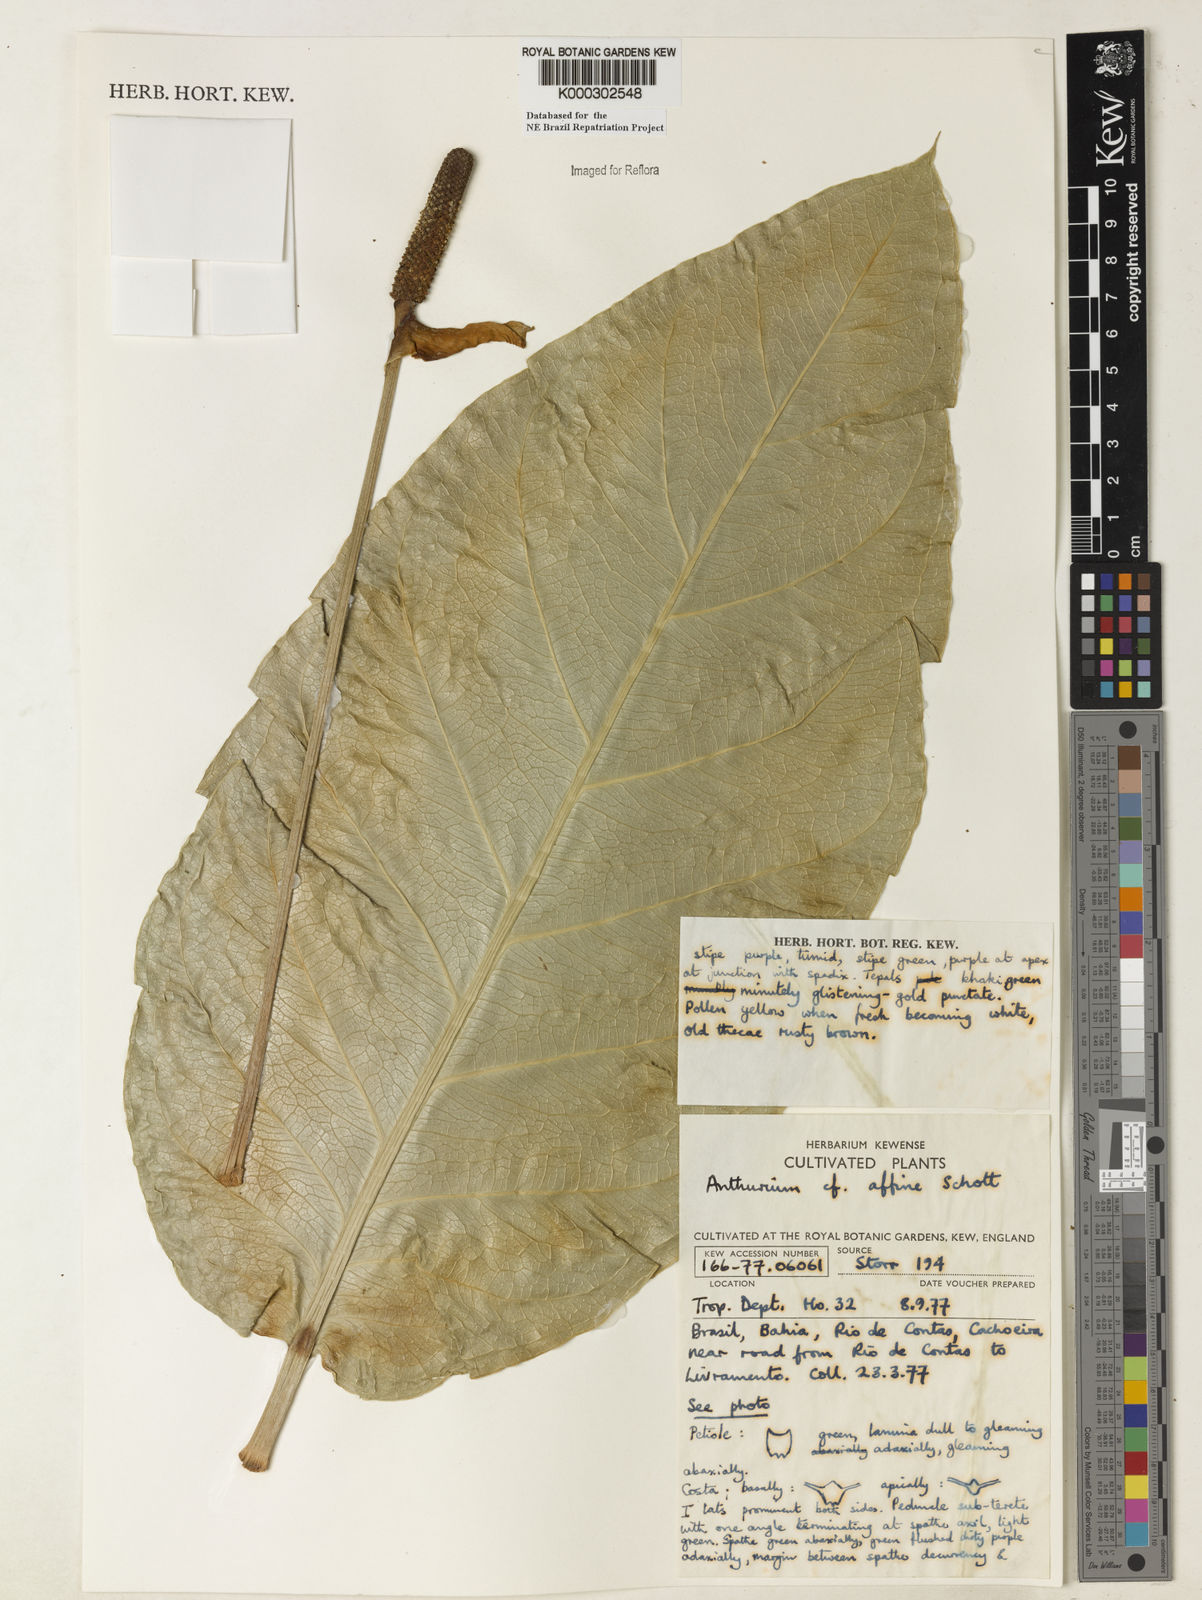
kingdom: Plantae
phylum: Tracheophyta
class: Liliopsida
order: Alismatales
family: Araceae
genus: Anthurium
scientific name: Anthurium affine
